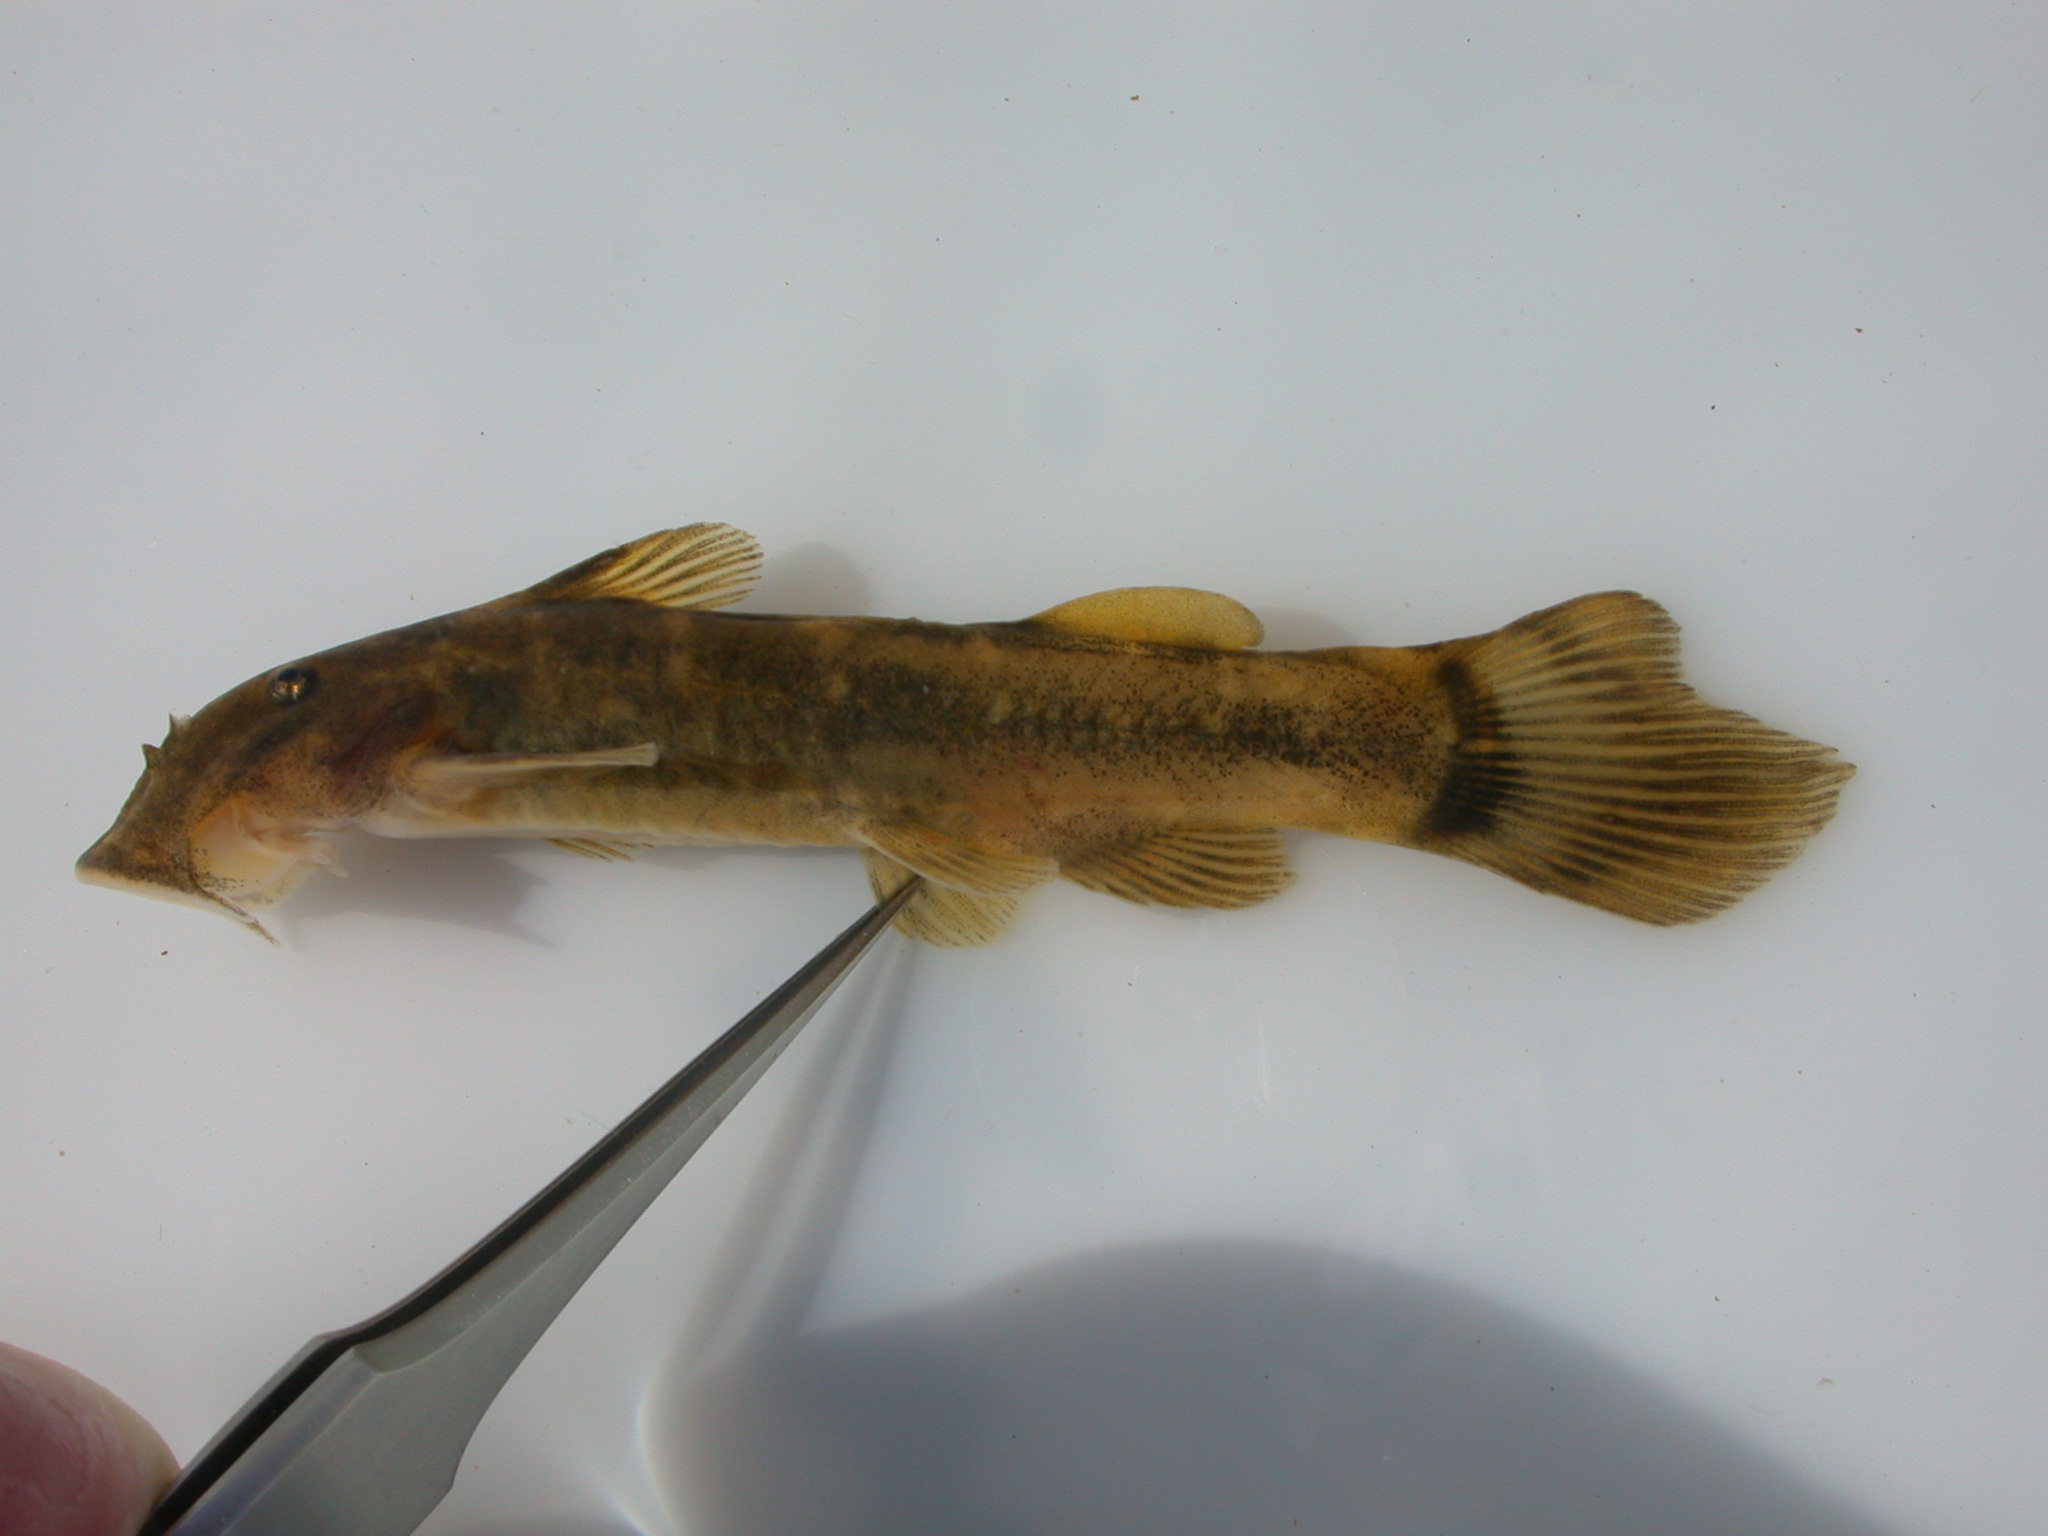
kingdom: Animalia
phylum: Chordata
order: Siluriformes
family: Mochokidae
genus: Chiloglanis
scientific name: Chiloglanis anoterus
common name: Pennant-tailed catlet
